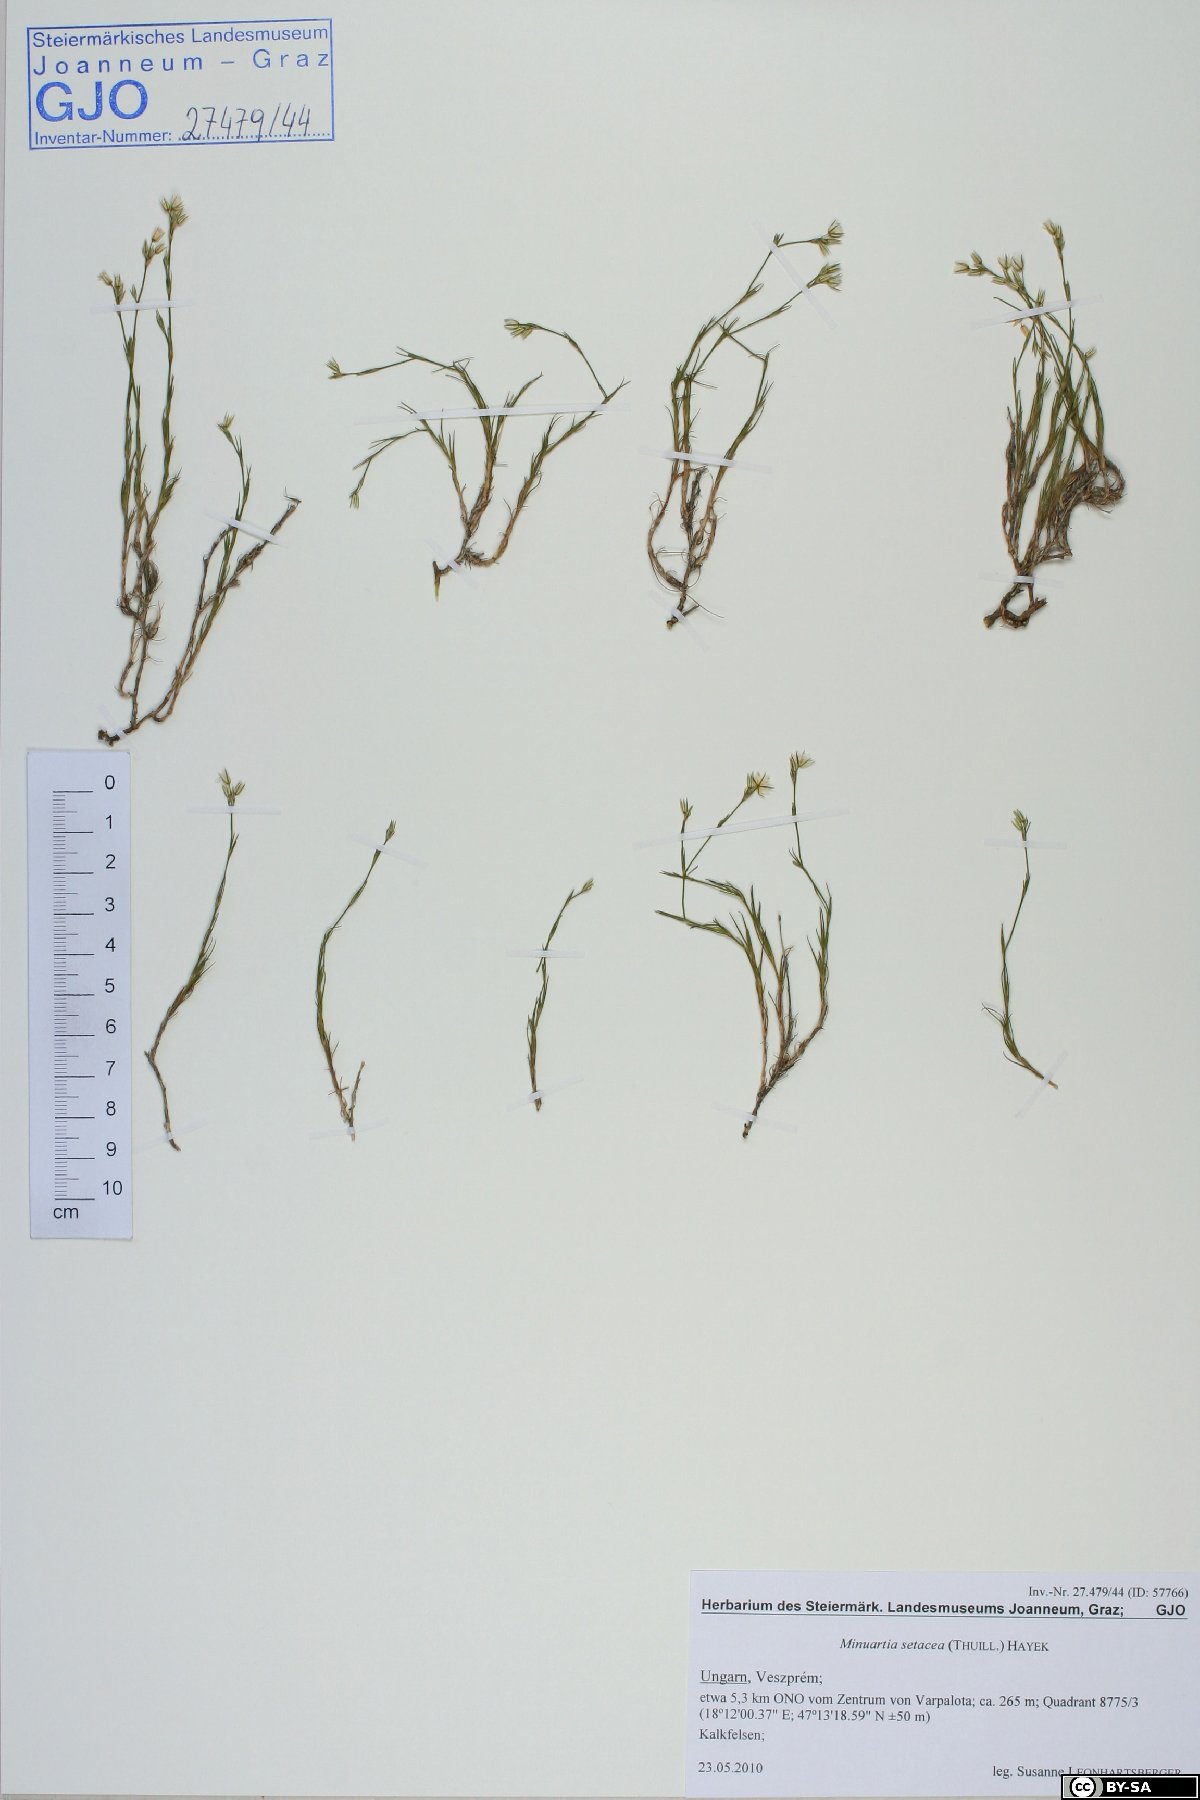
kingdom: Plantae
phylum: Tracheophyta
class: Magnoliopsida
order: Caryophyllales
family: Caryophyllaceae
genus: Minuartia
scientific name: Minuartia setacea
